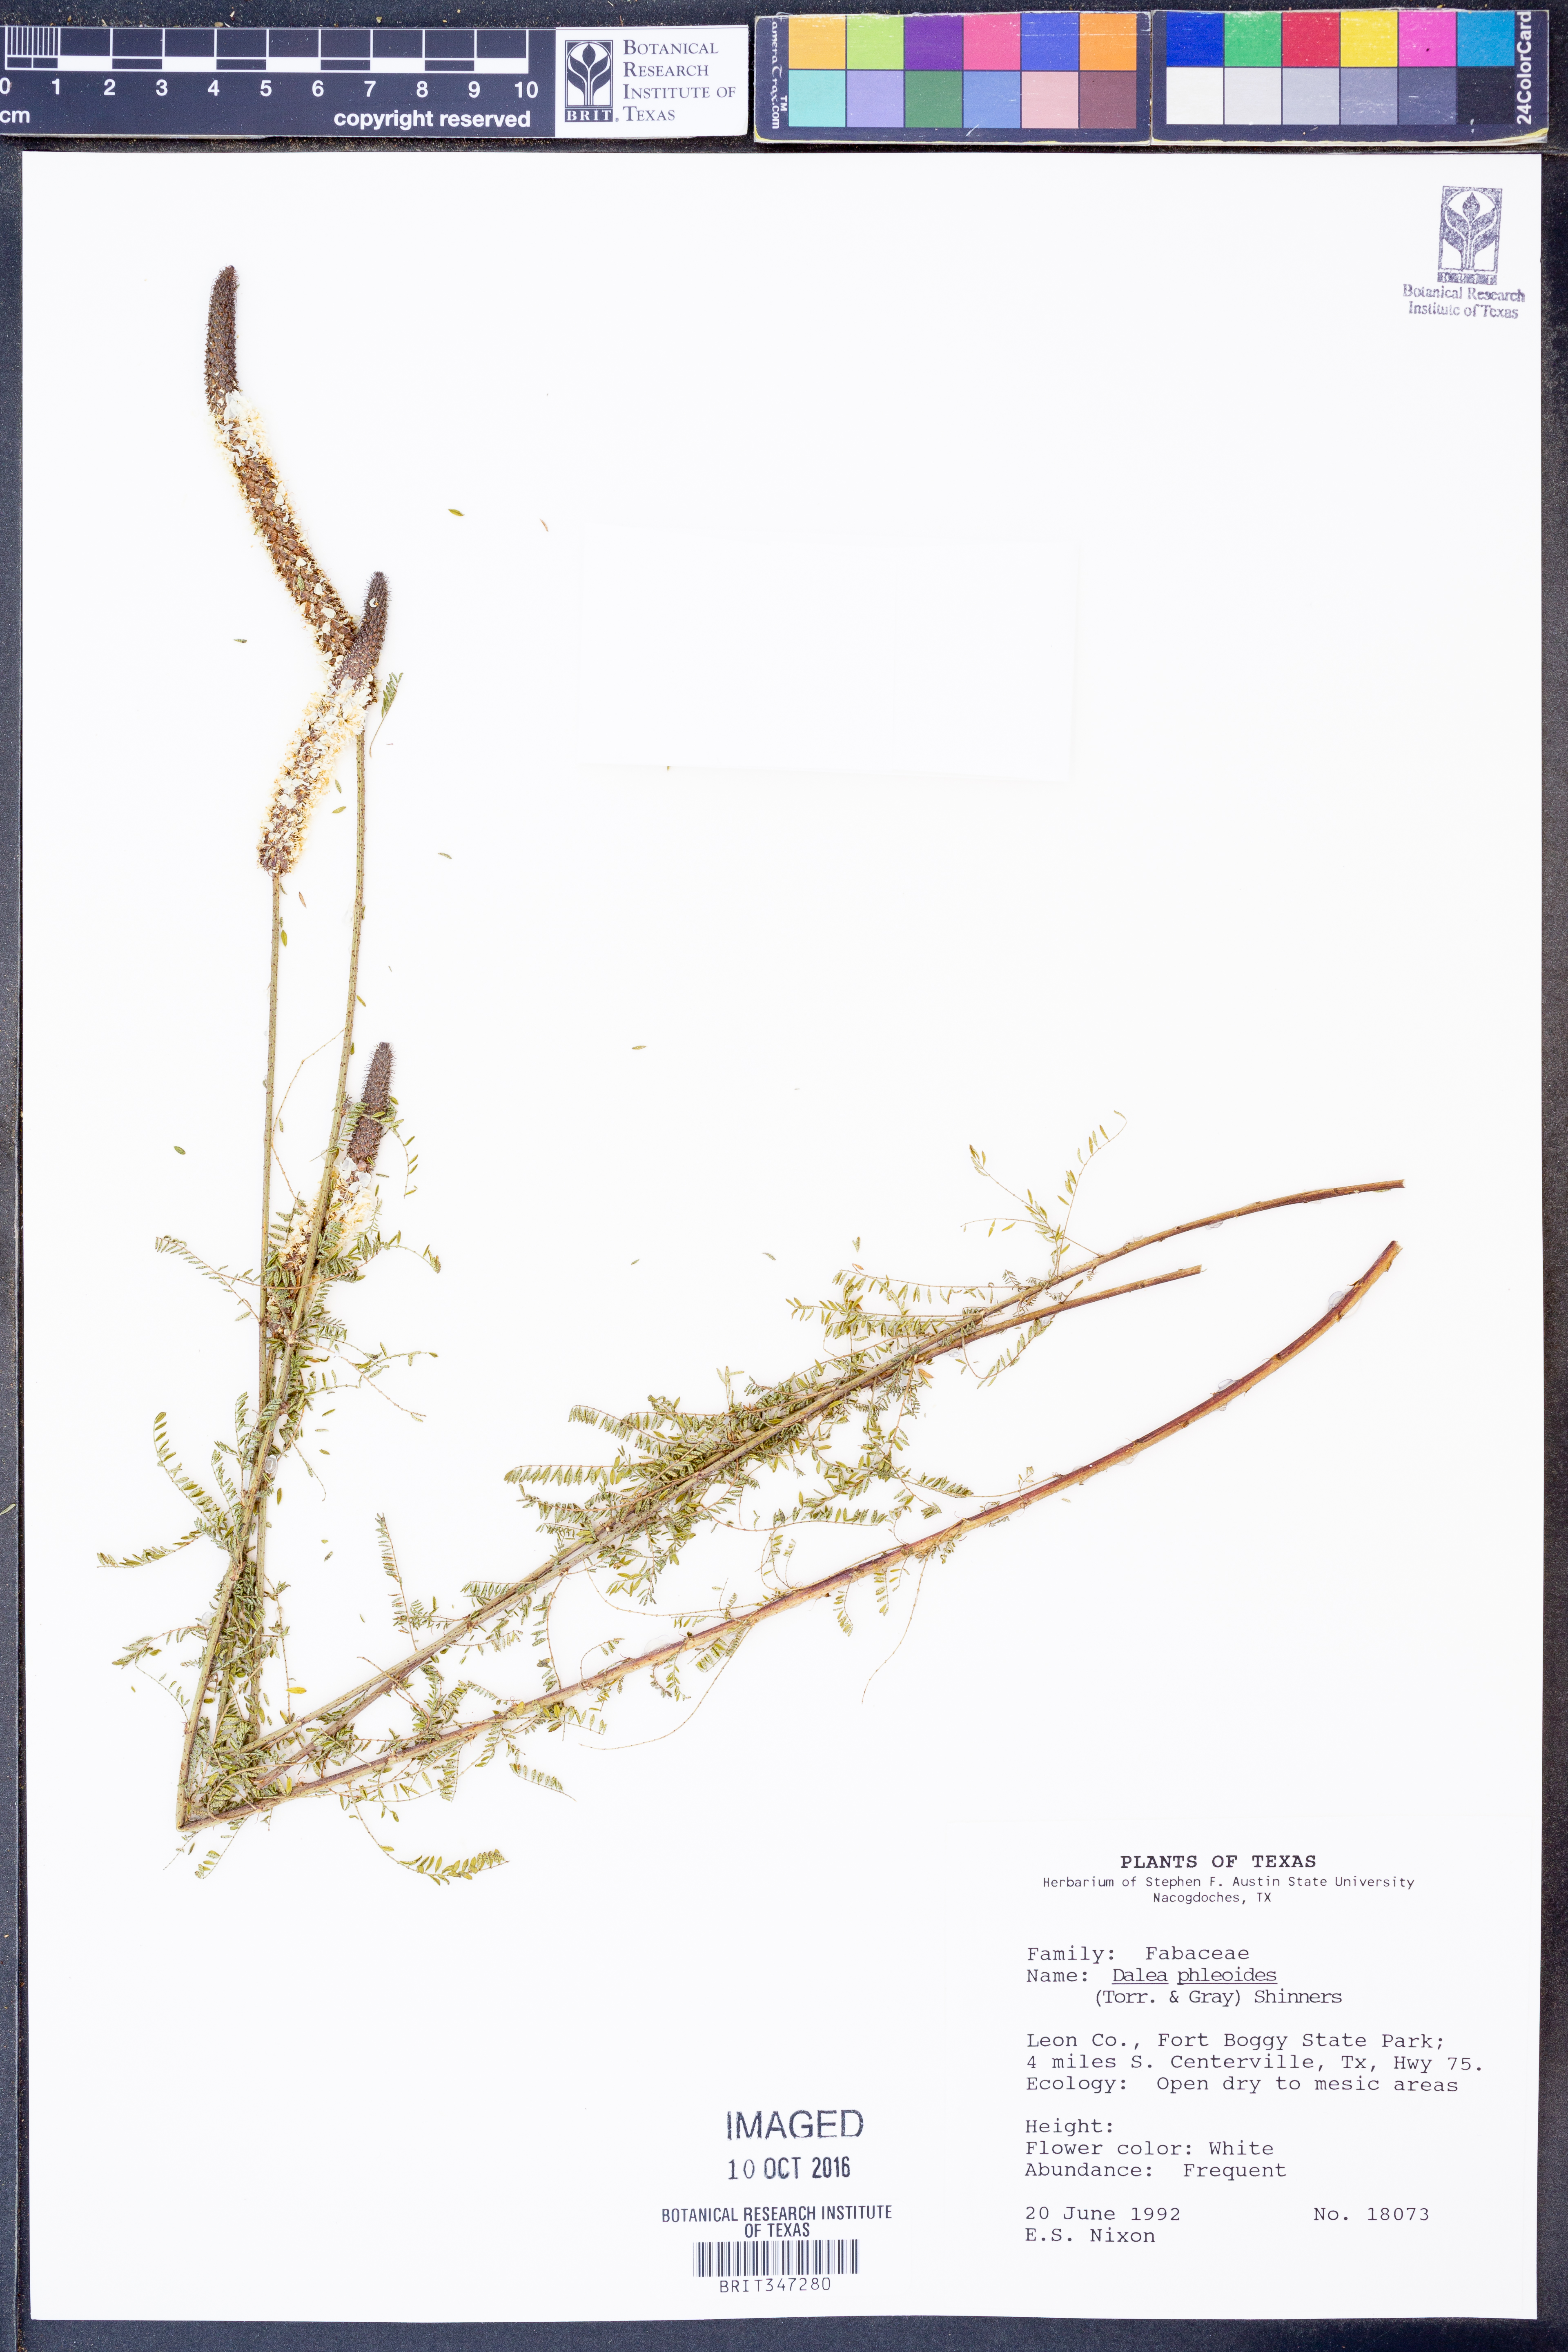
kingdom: Plantae
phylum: Tracheophyta
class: Magnoliopsida
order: Fabales
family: Fabaceae
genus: Dalea
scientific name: Dalea phleoides
